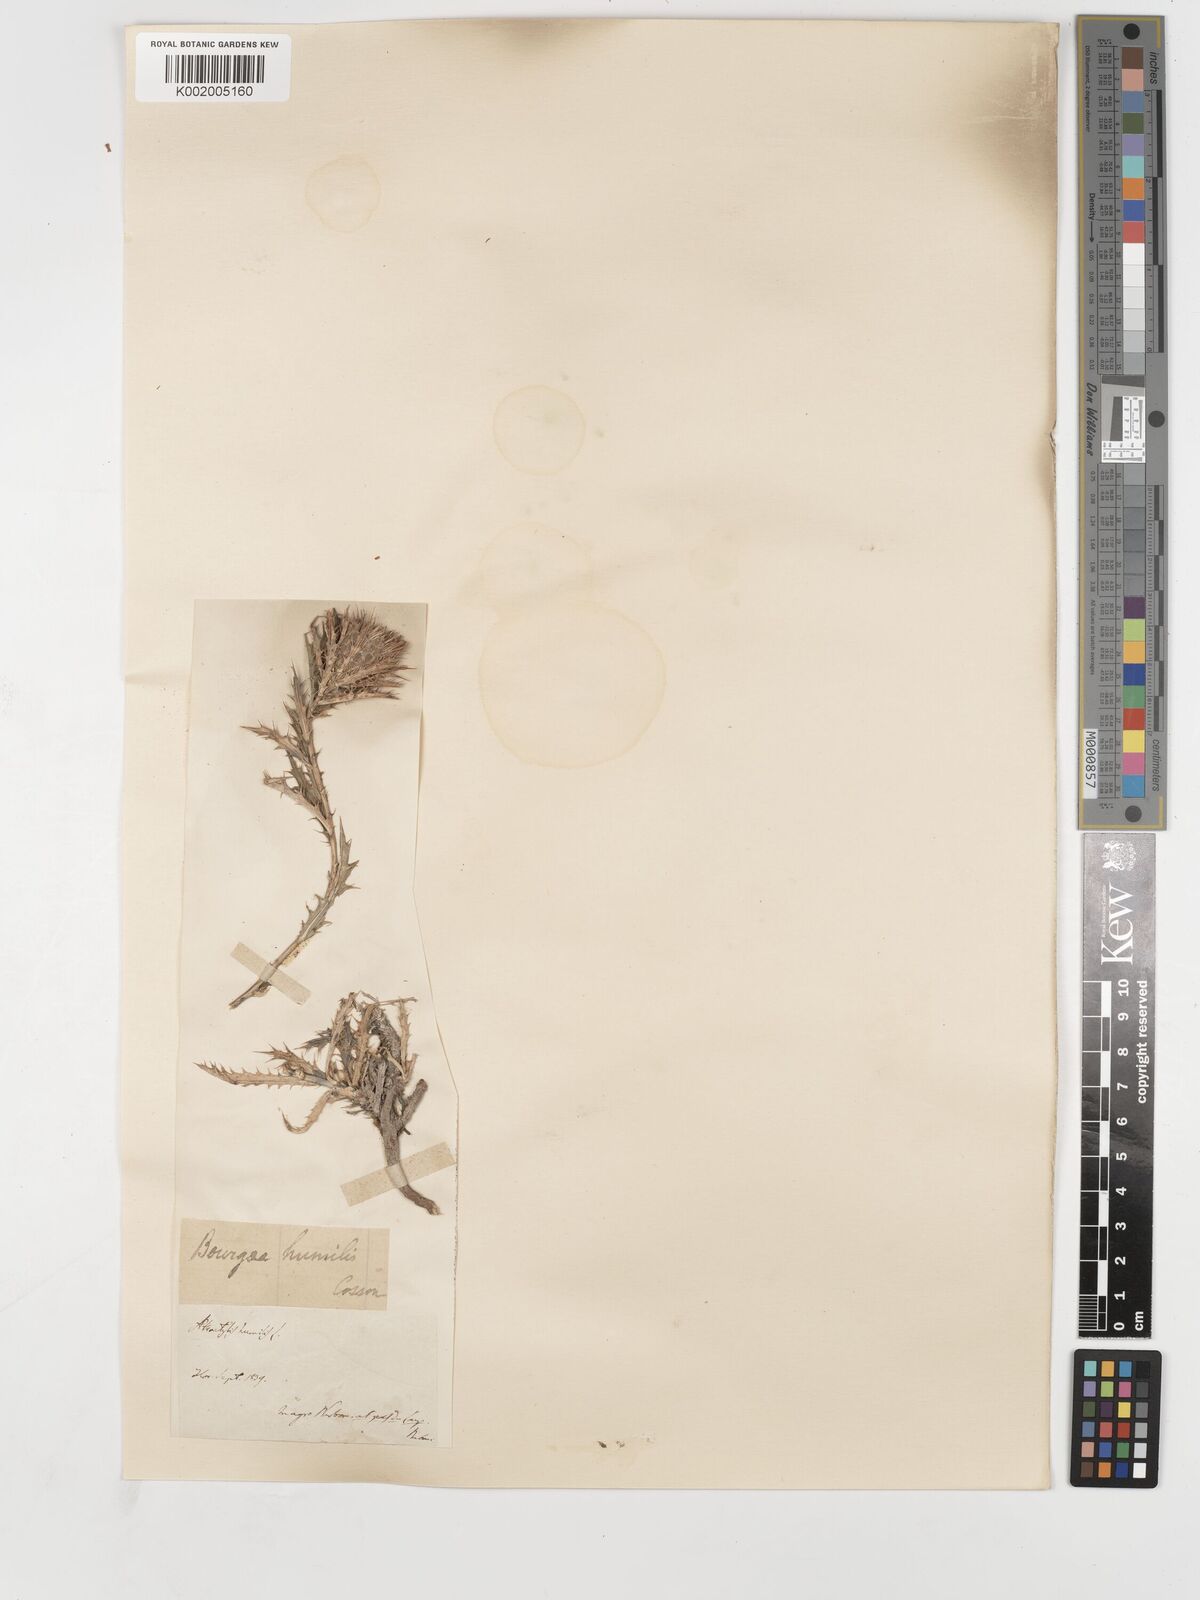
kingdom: Plantae
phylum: Tracheophyta
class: Magnoliopsida
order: Asterales
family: Asteraceae
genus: Atractylis
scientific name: Atractylis humilis
